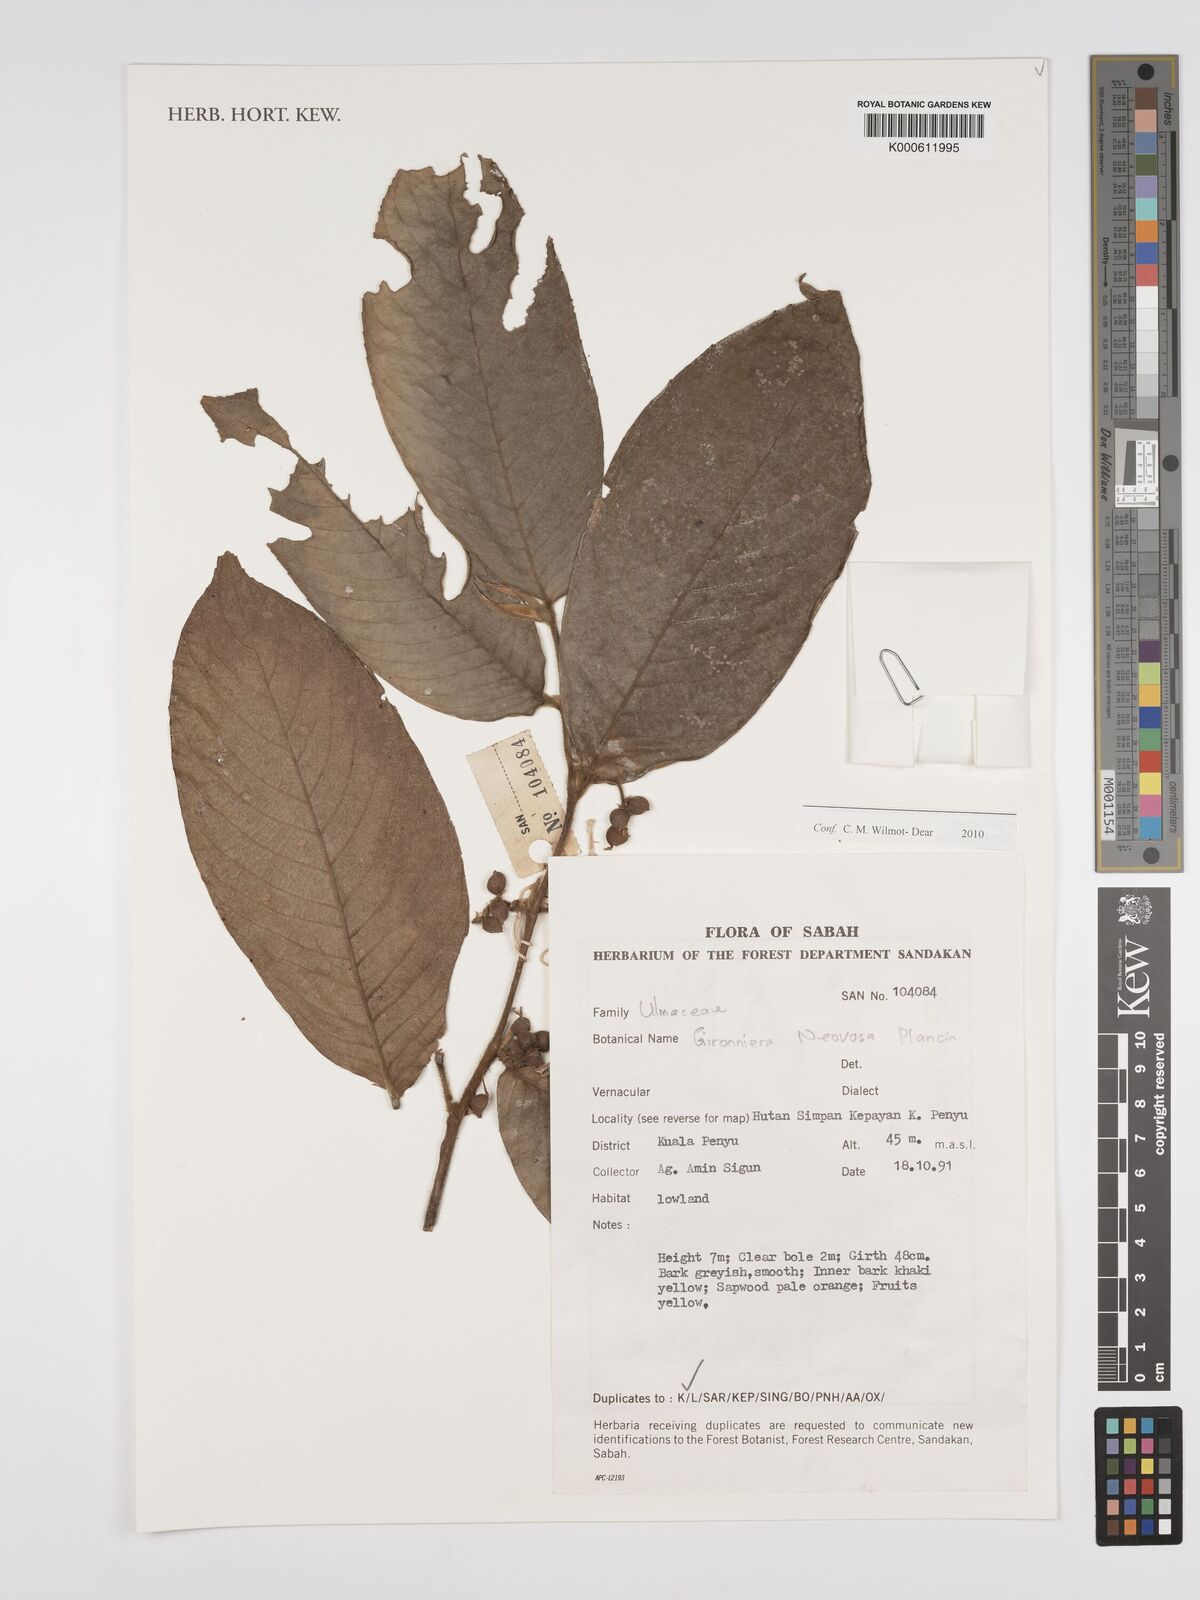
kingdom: Plantae
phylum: Tracheophyta
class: Magnoliopsida
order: Rosales
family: Cannabaceae
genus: Gironniera
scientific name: Gironniera nervosa
